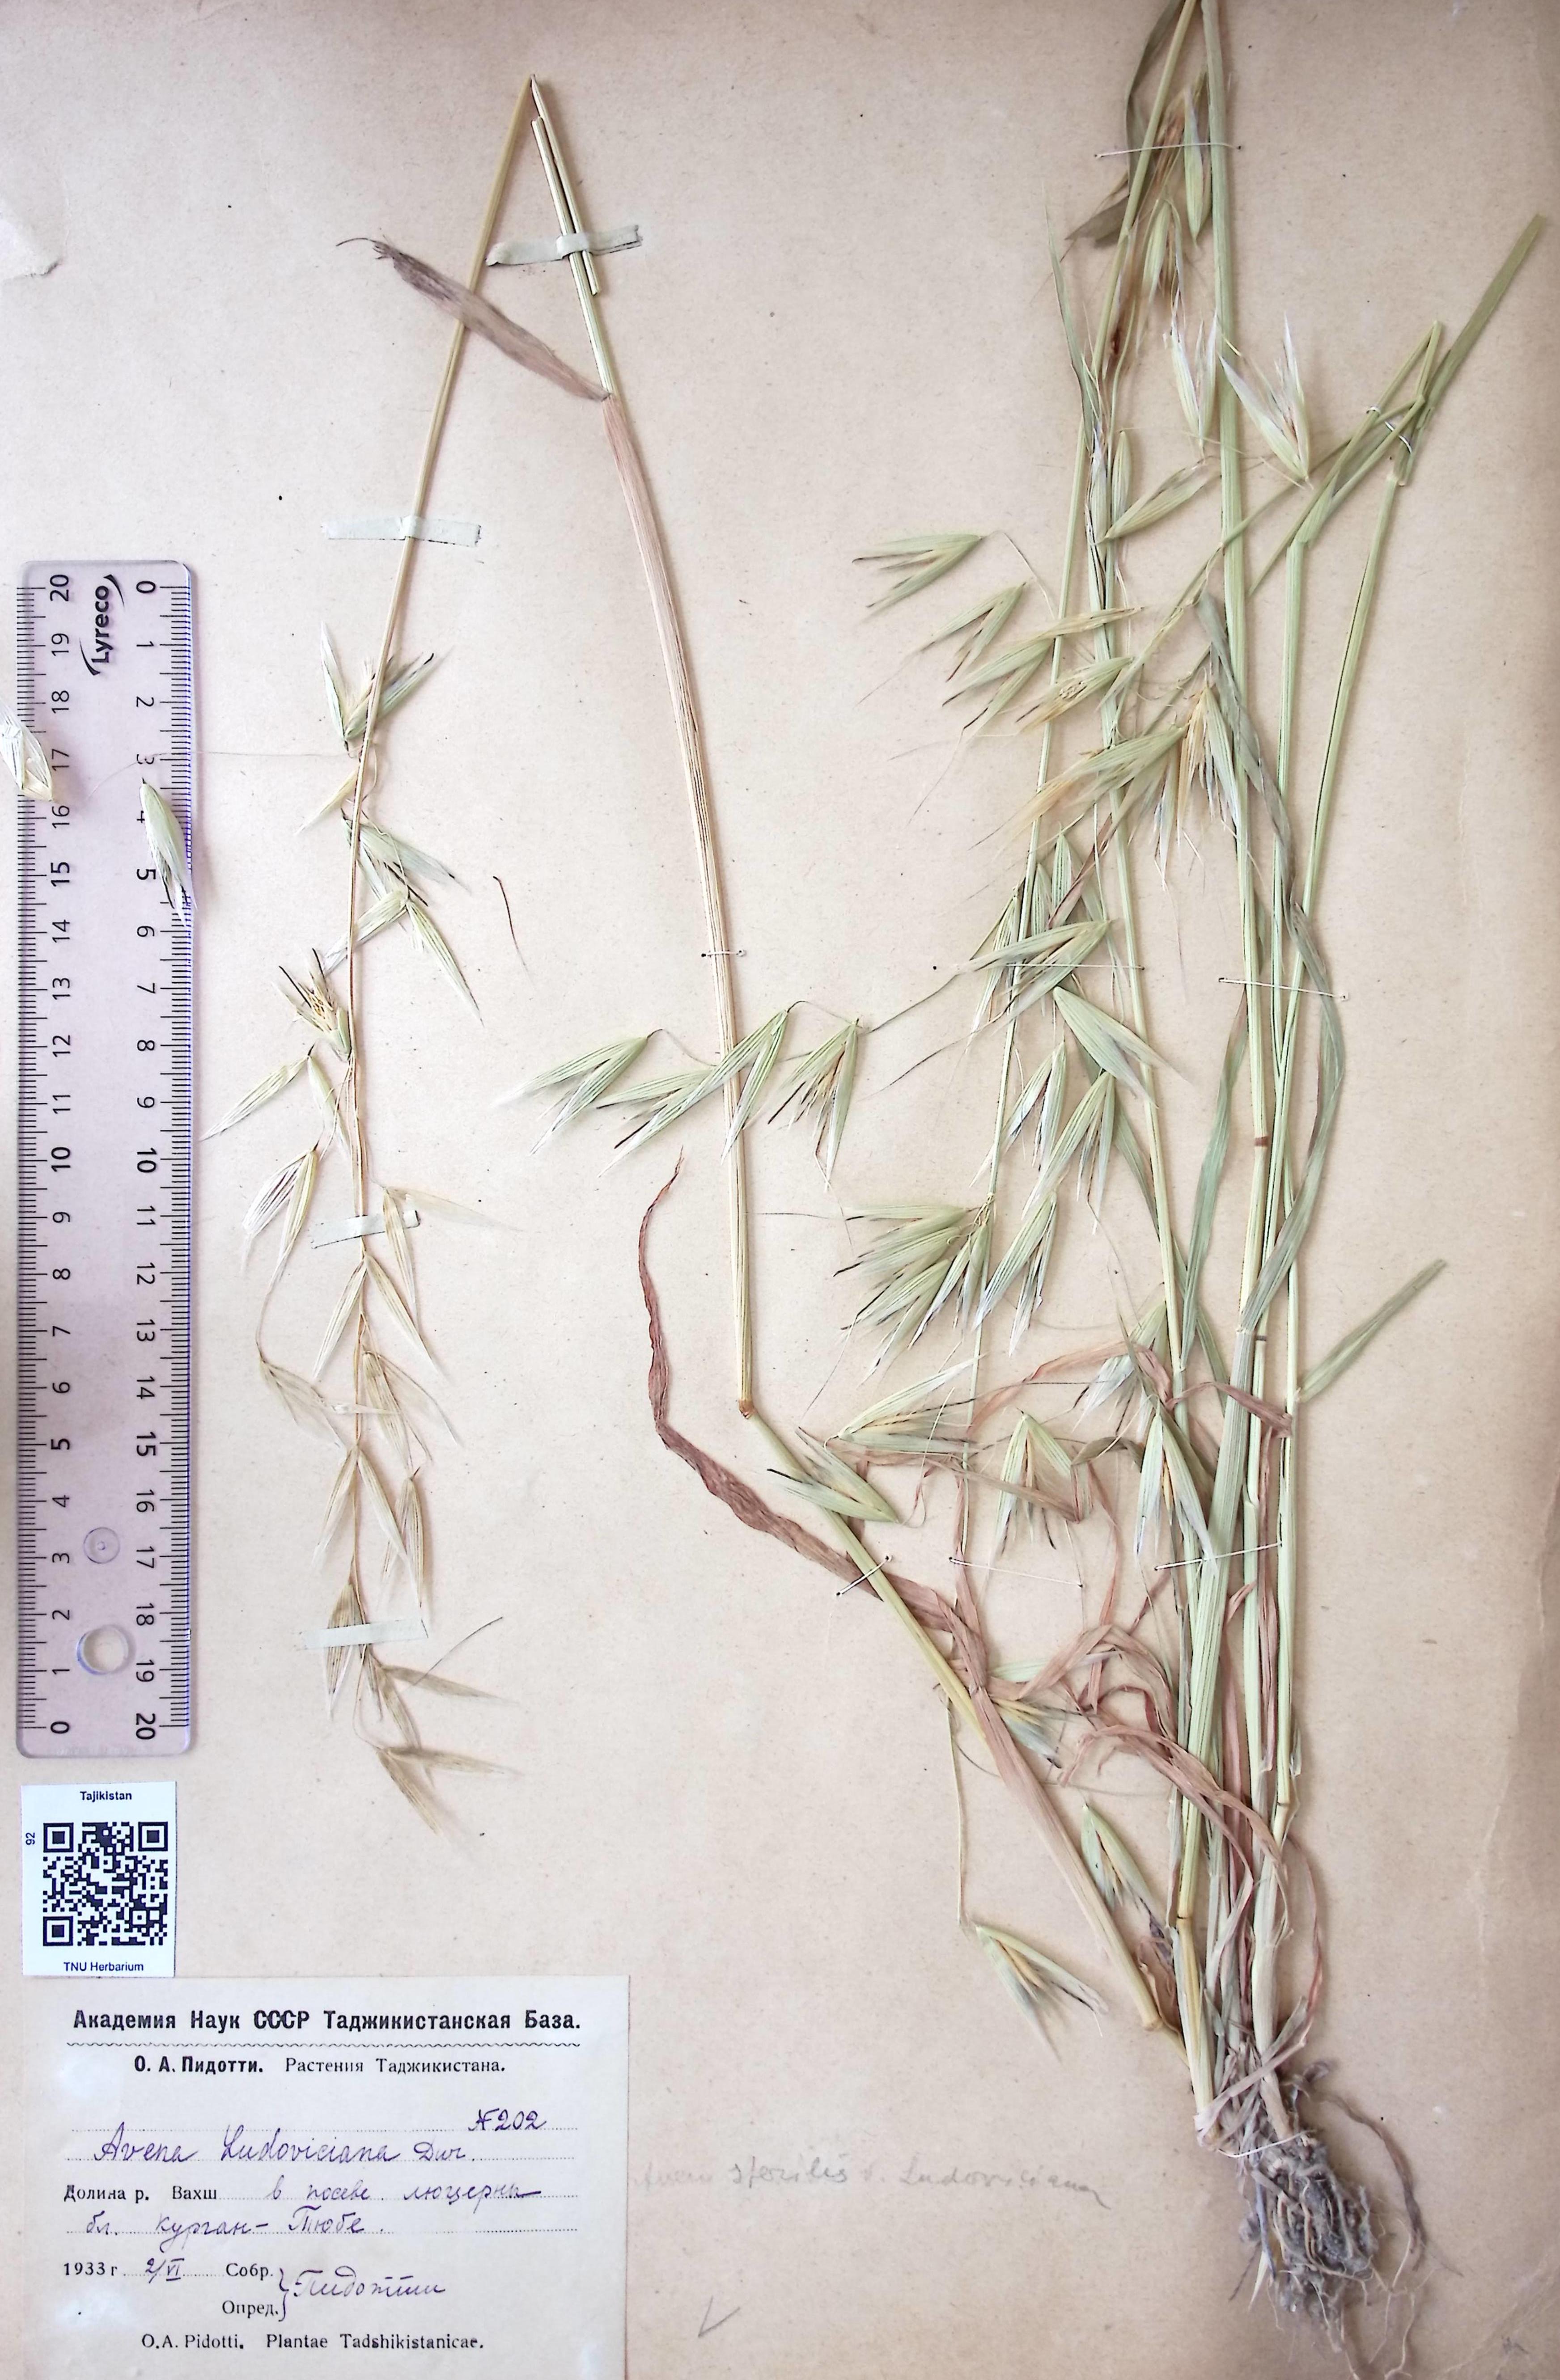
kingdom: Plantae
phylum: Tracheophyta
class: Liliopsida
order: Poales
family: Poaceae
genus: Avena
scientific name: Avena sterilis
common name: Animated oat
